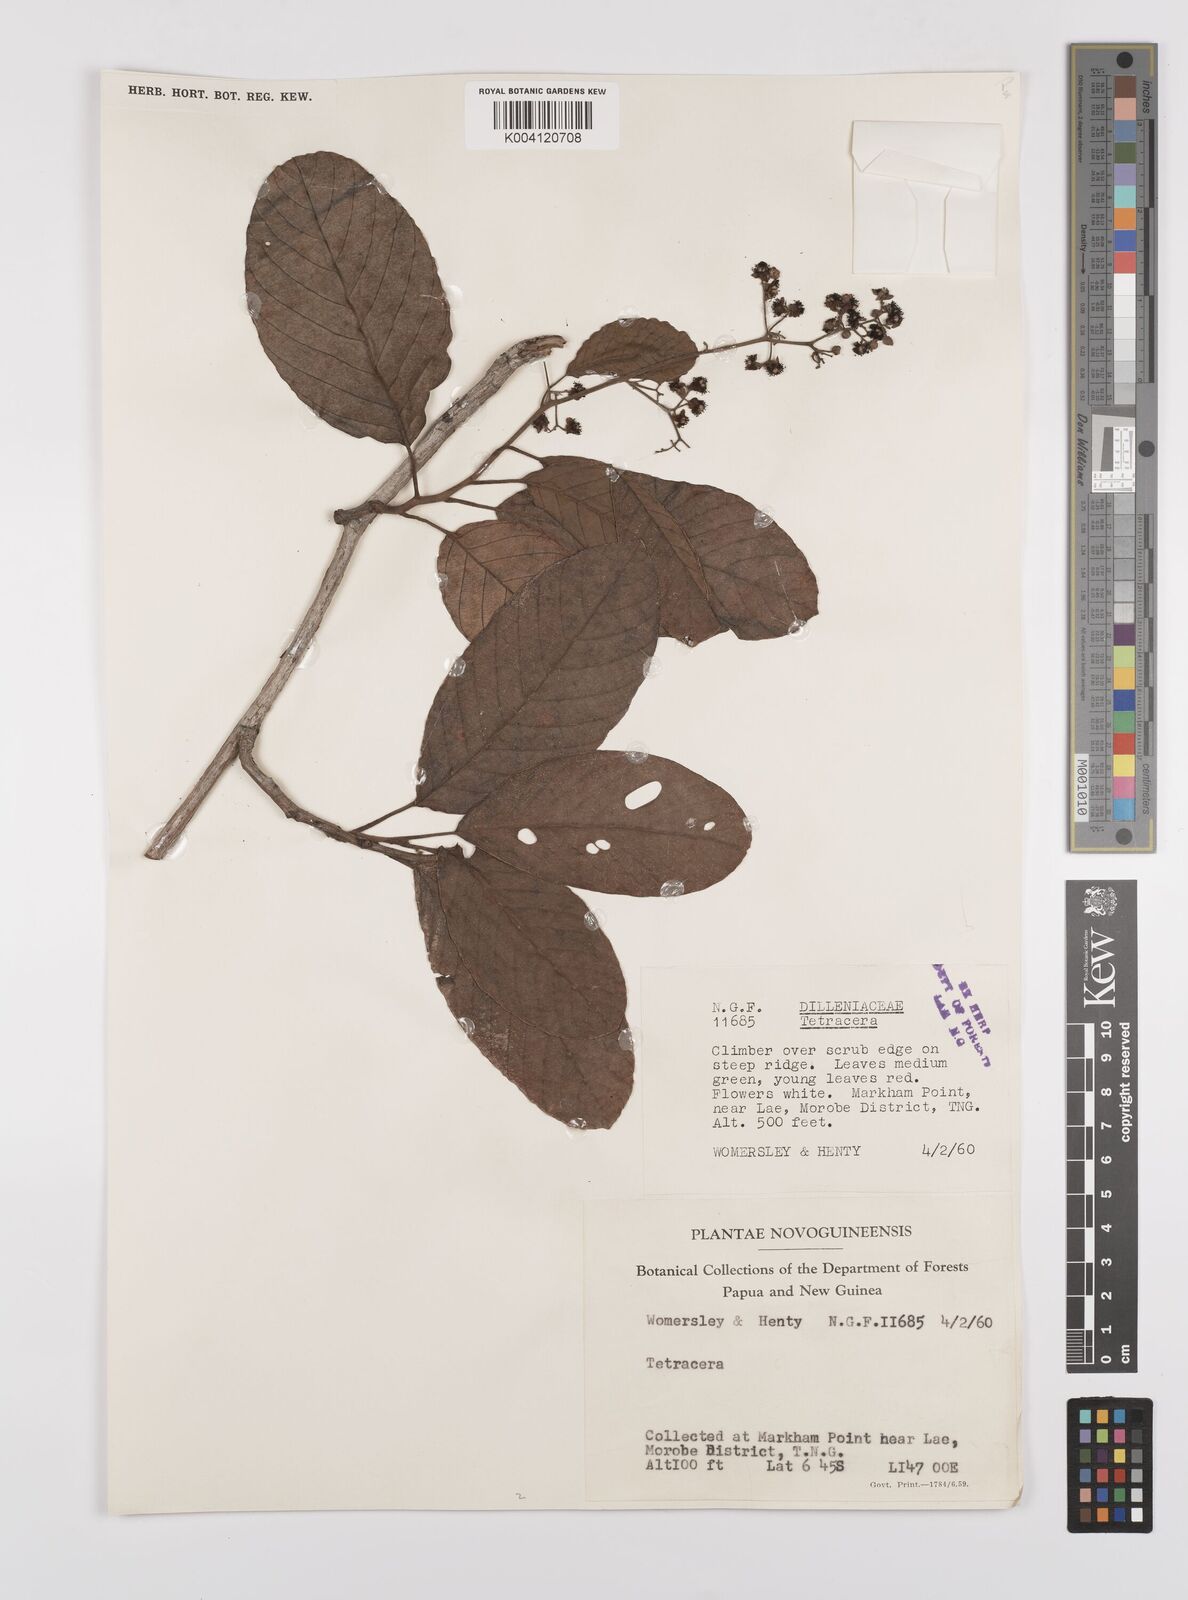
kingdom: Plantae
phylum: Tracheophyta
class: Magnoliopsida
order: Dilleniales
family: Dilleniaceae
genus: Tetracera
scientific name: Tetracera
